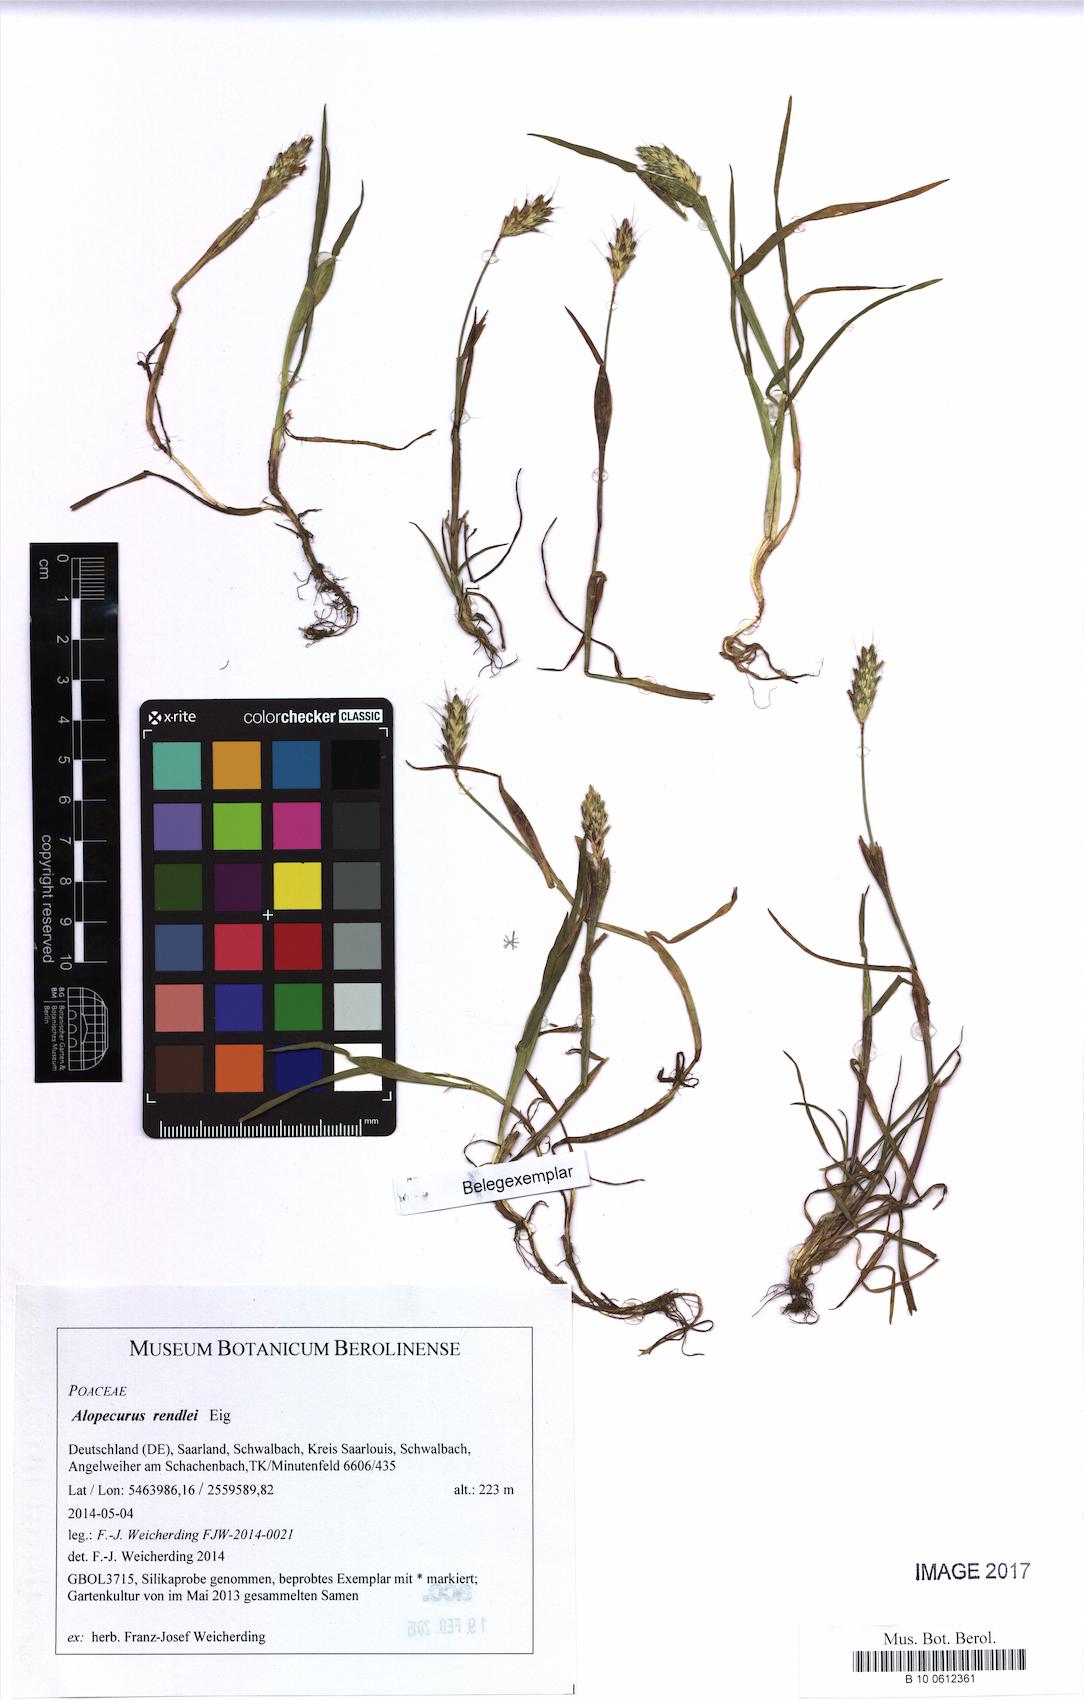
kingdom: Plantae
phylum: Tracheophyta
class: Liliopsida
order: Poales
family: Poaceae
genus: Alopecurus
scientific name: Alopecurus rendlei
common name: Rendle's meadow foxtail
